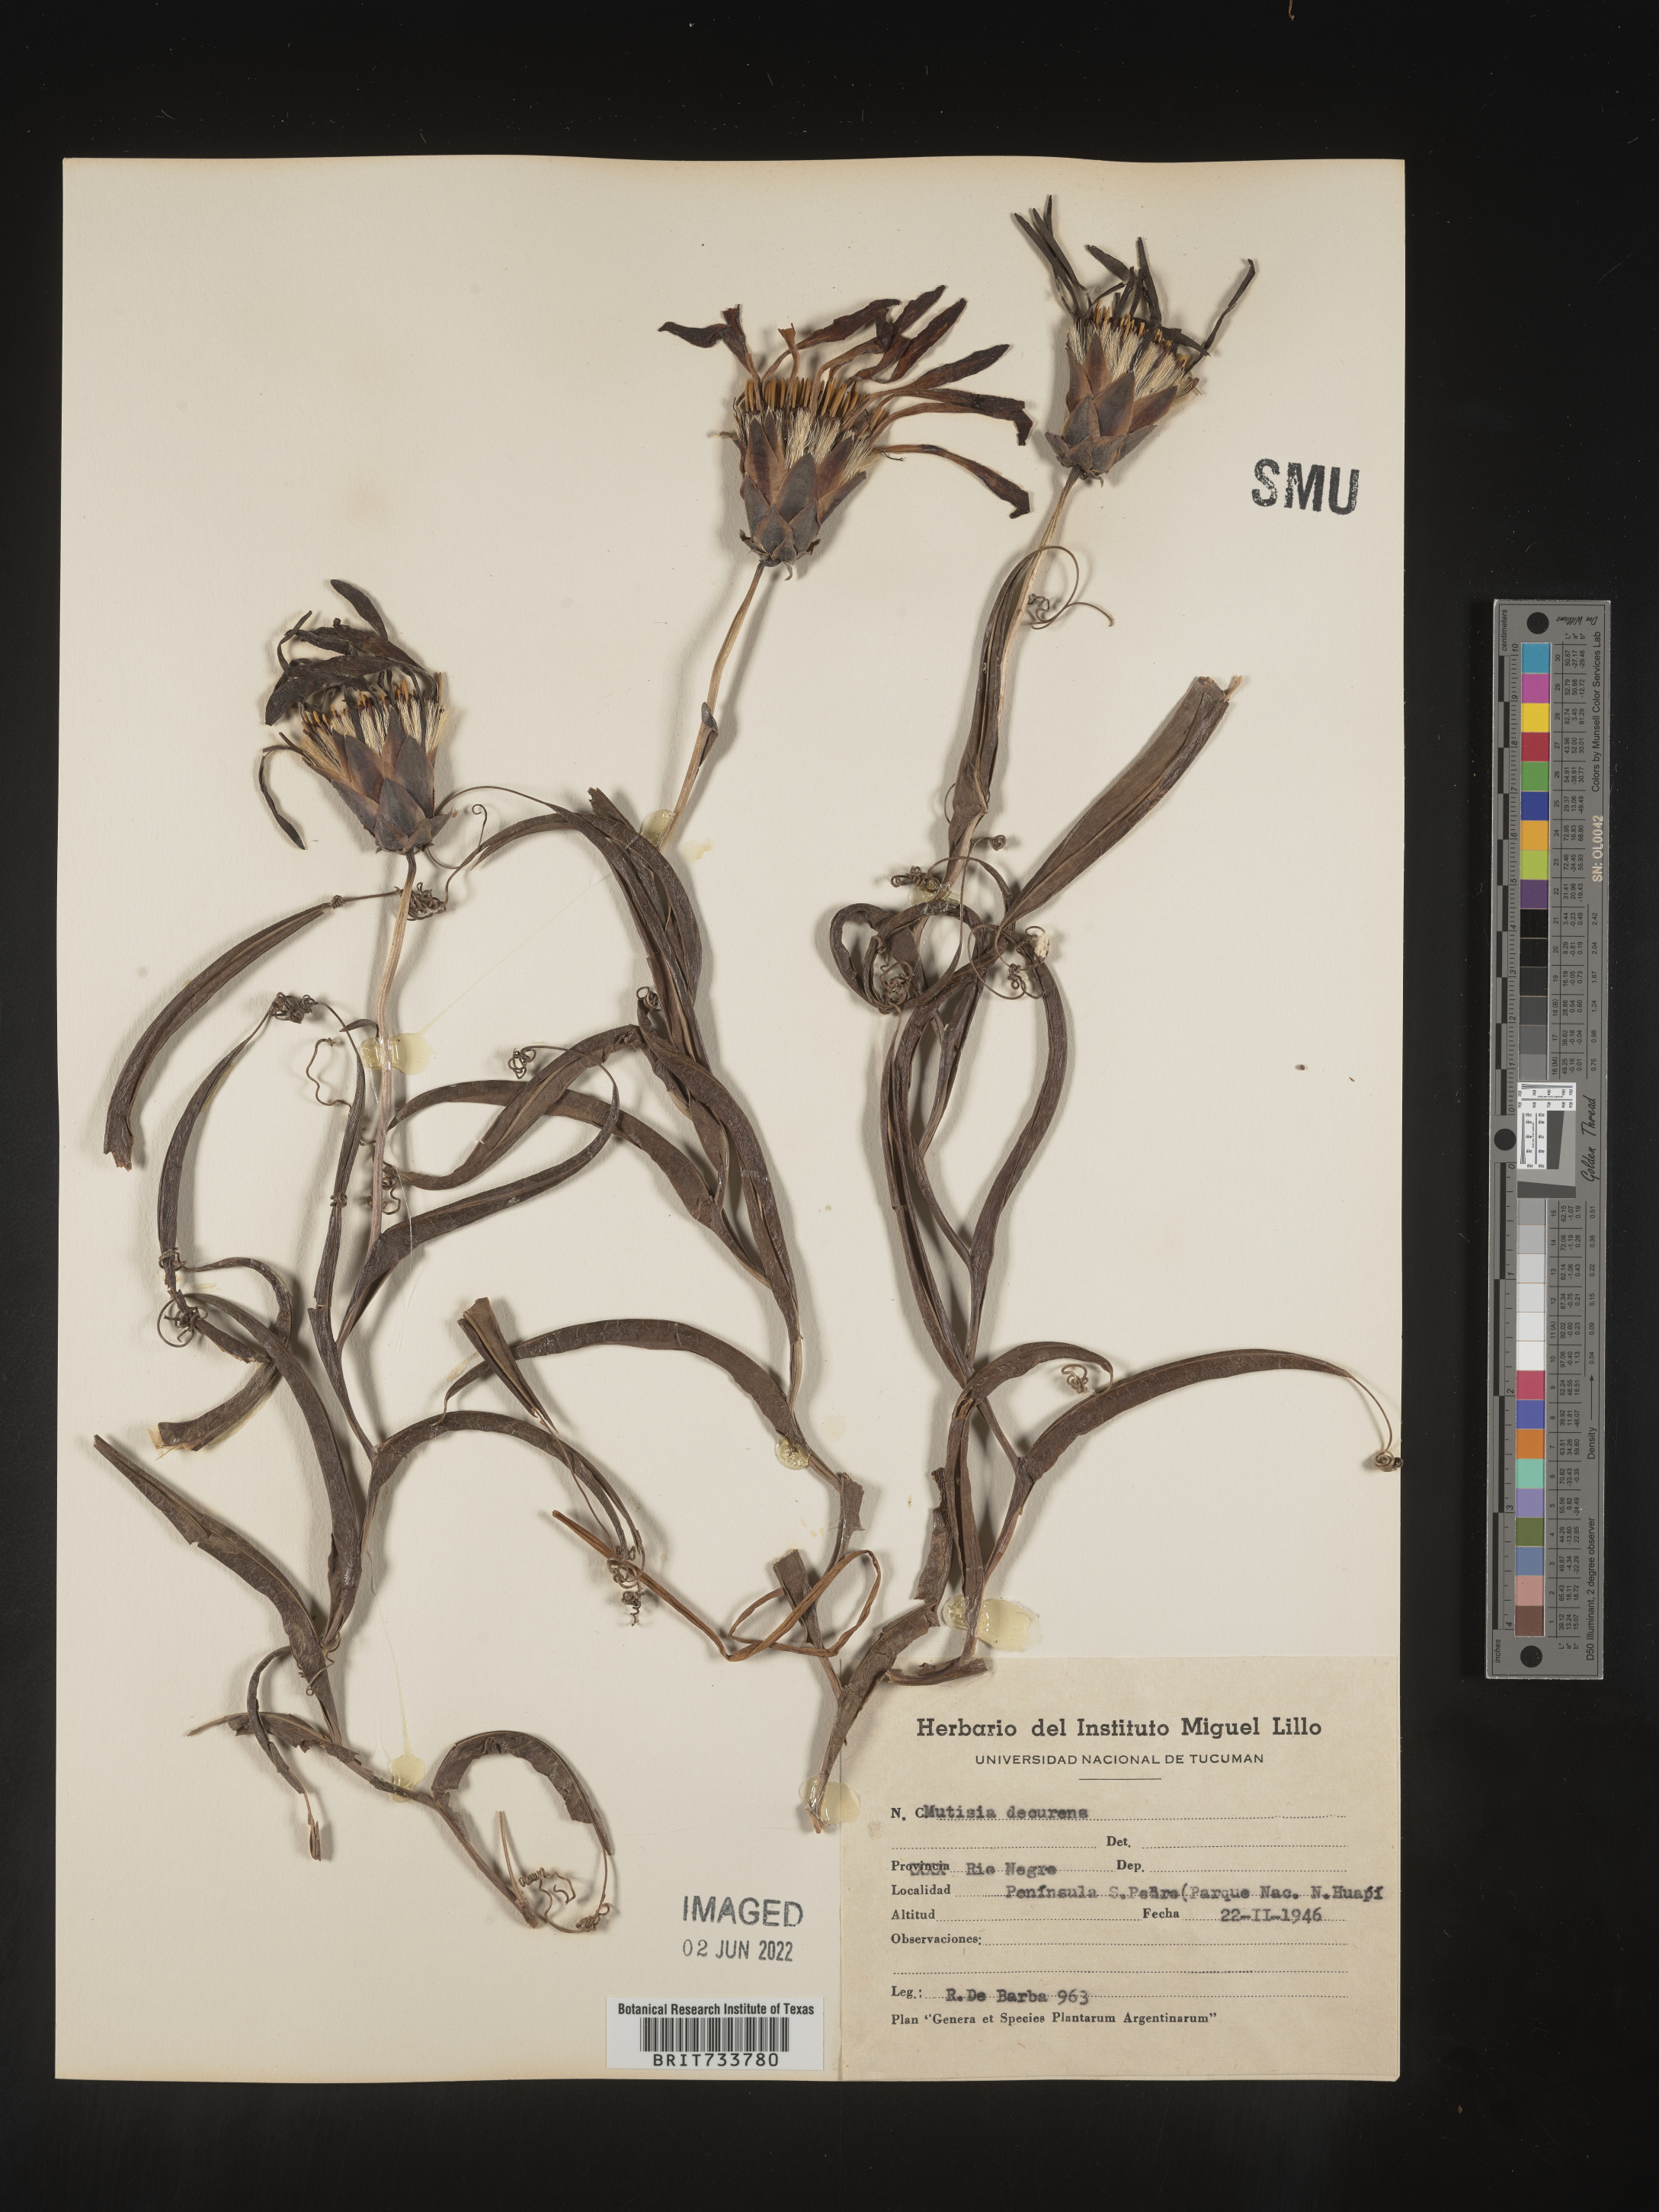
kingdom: Plantae
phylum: Tracheophyta
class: Magnoliopsida
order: Asterales
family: Asteraceae
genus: Mutisia
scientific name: Mutisia
